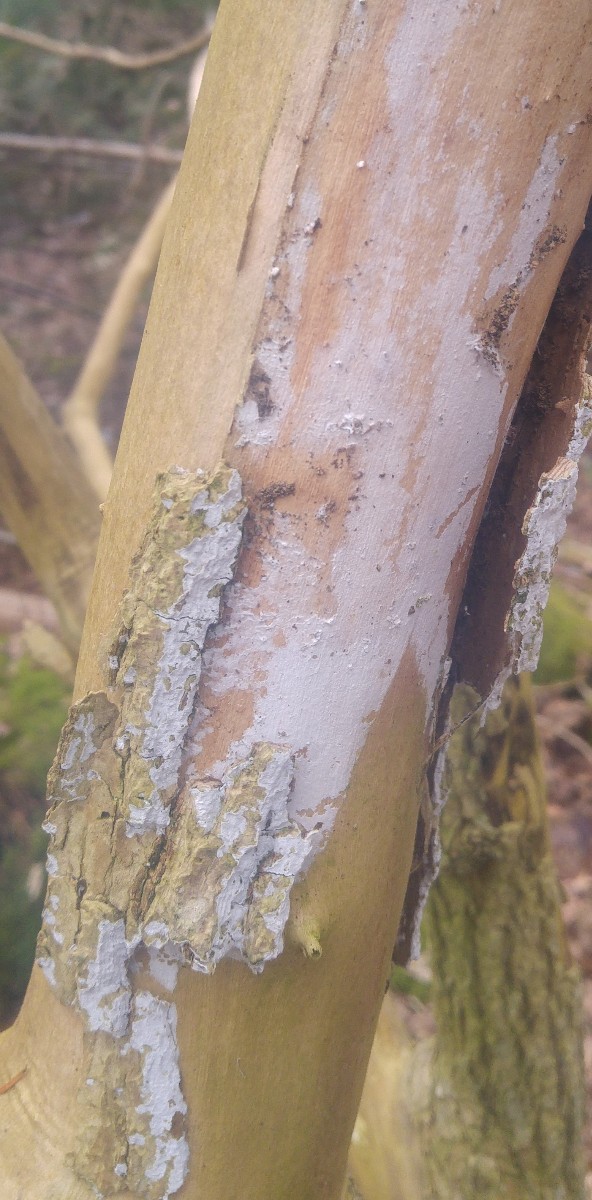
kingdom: Fungi
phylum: Basidiomycota
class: Agaricomycetes
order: Corticiales
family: Corticiaceae
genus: Lyomyces
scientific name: Lyomyces sambuci
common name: almindelig hyldehinde
